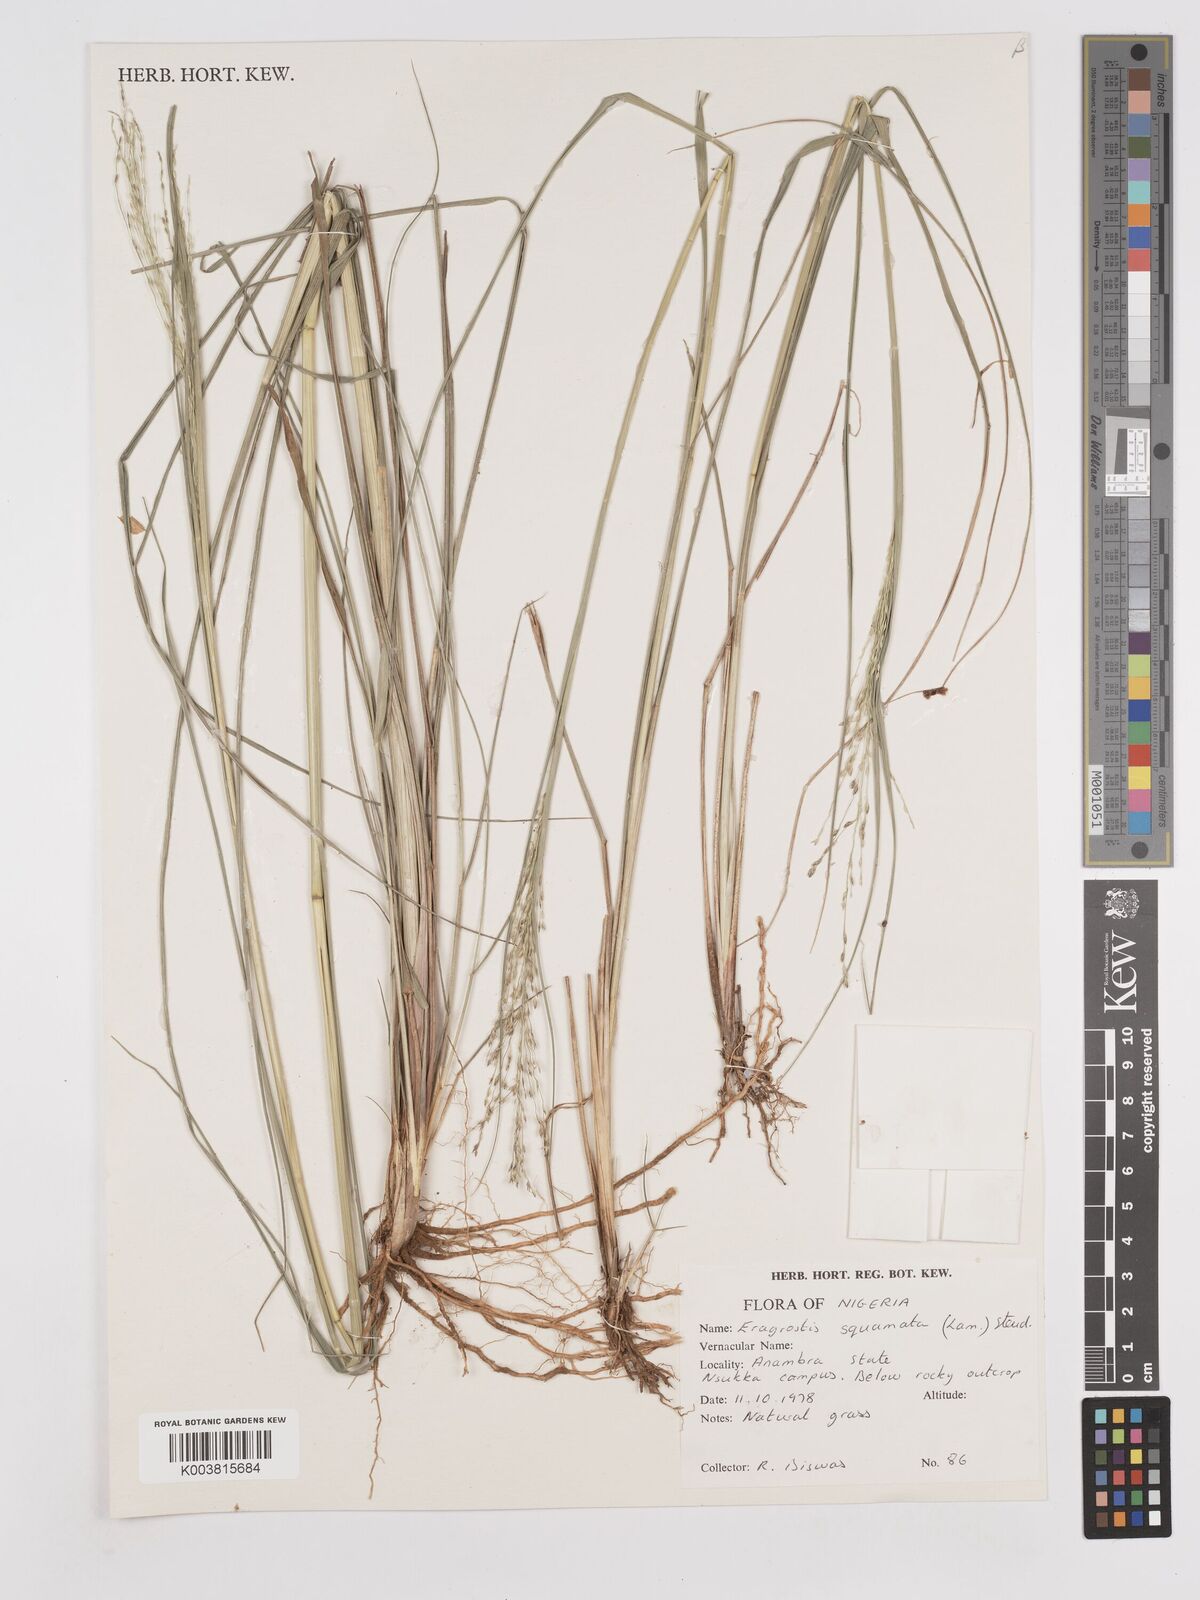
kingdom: Plantae
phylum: Tracheophyta
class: Liliopsida
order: Poales
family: Poaceae
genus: Eragrostis
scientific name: Eragrostis squamata
